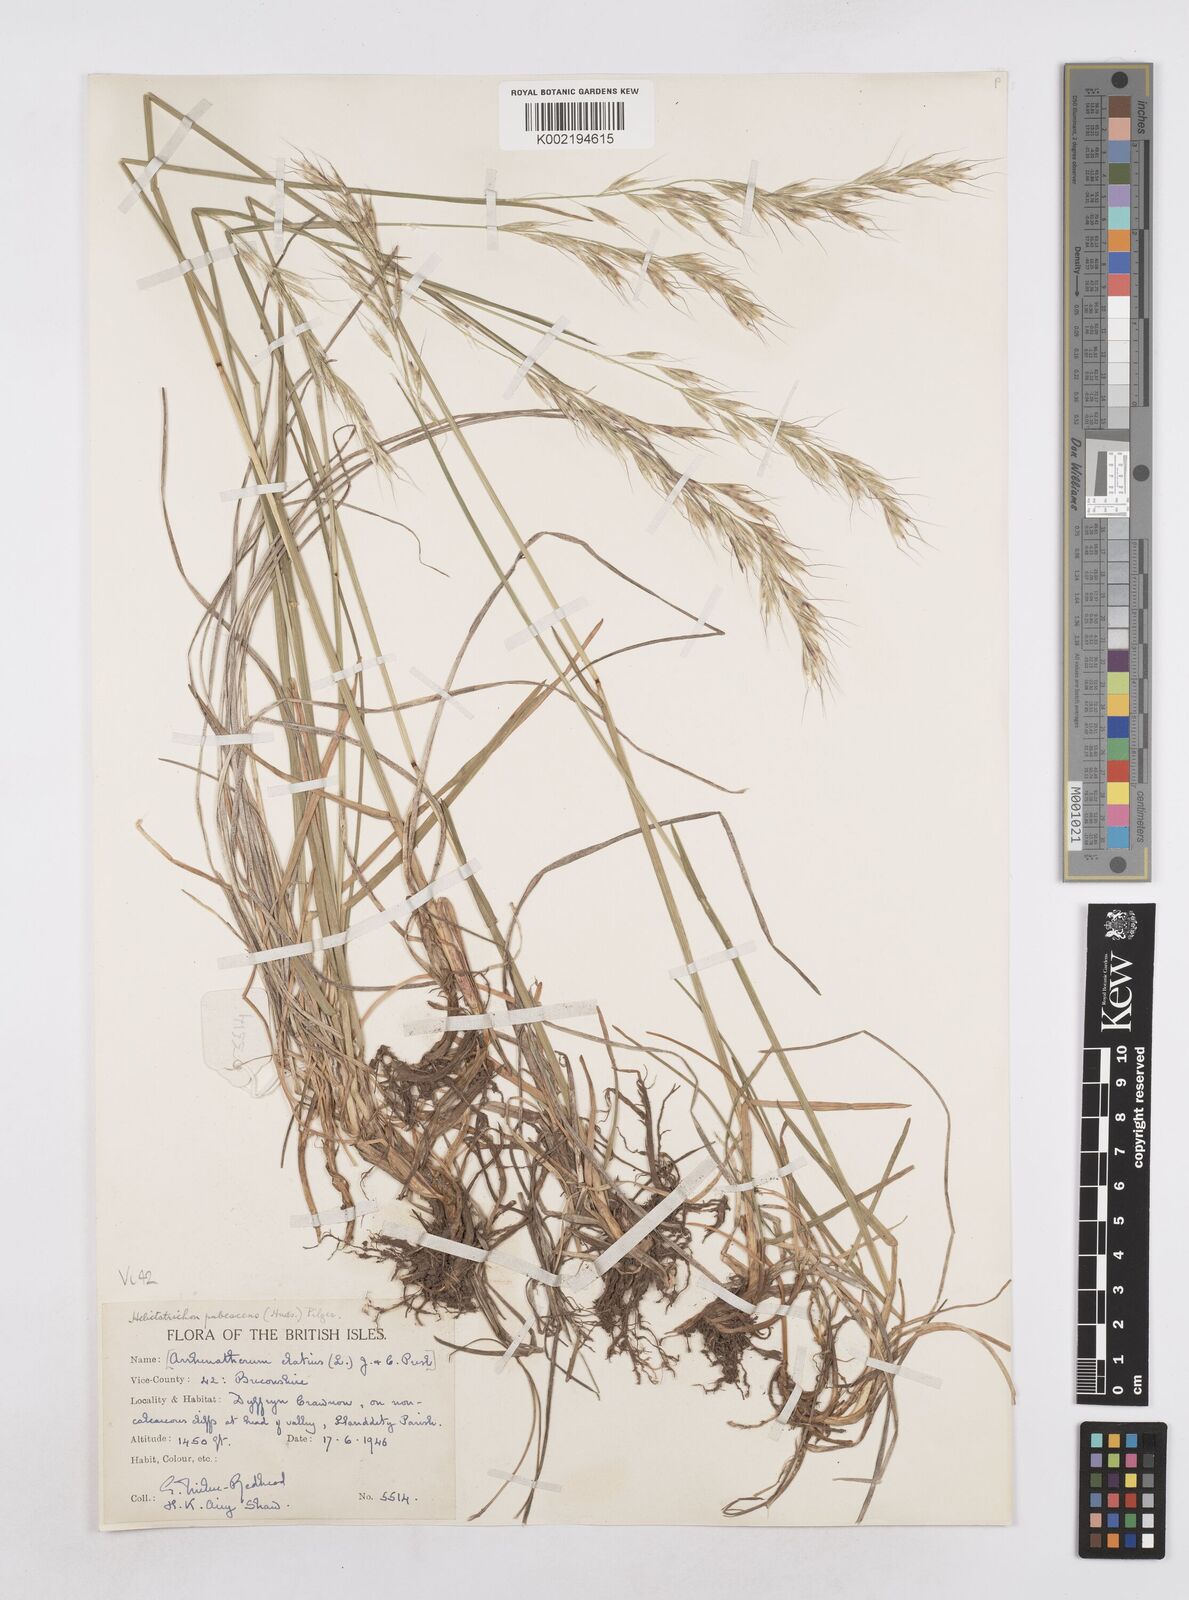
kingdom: Plantae
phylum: Tracheophyta
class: Liliopsida
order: Poales
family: Poaceae
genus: Avenula
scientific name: Avenula pubescens
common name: Downy alpine oatgrass
